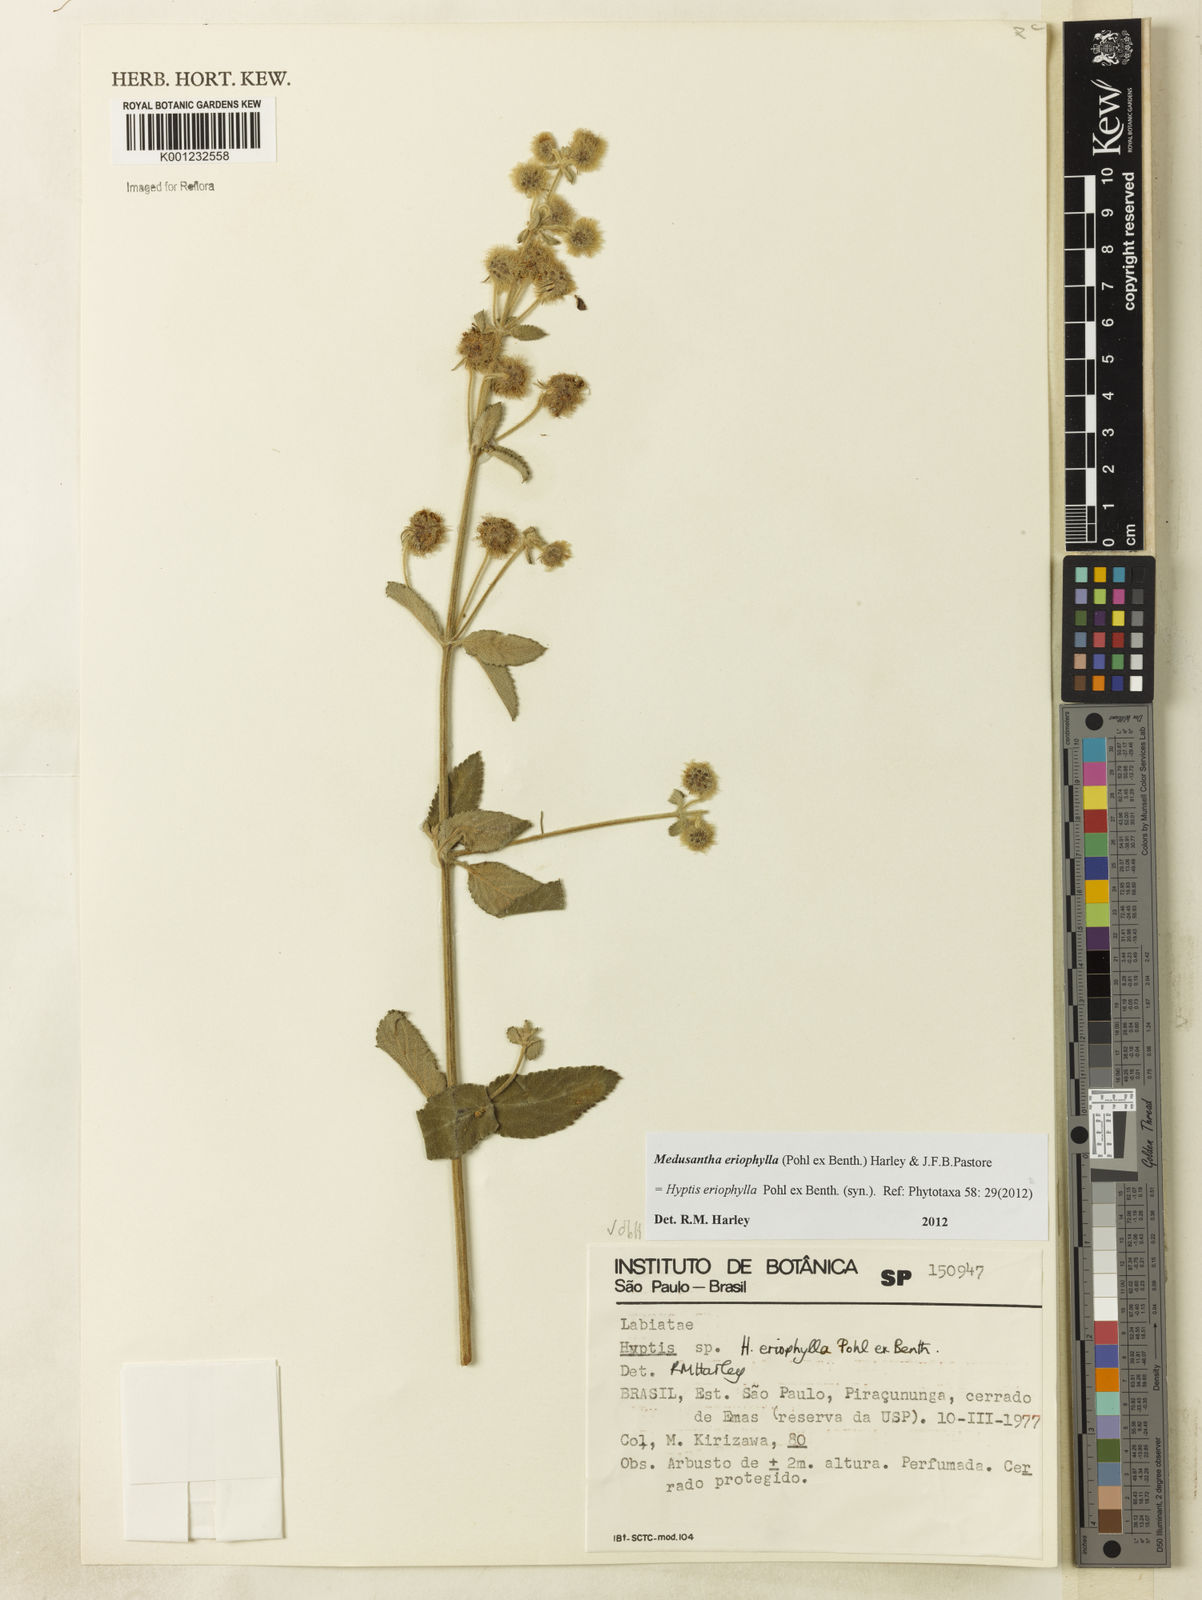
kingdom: Plantae
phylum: Tracheophyta
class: Magnoliopsida
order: Lamiales
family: Lamiaceae
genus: Medusantha
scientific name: Medusantha eriophylla
